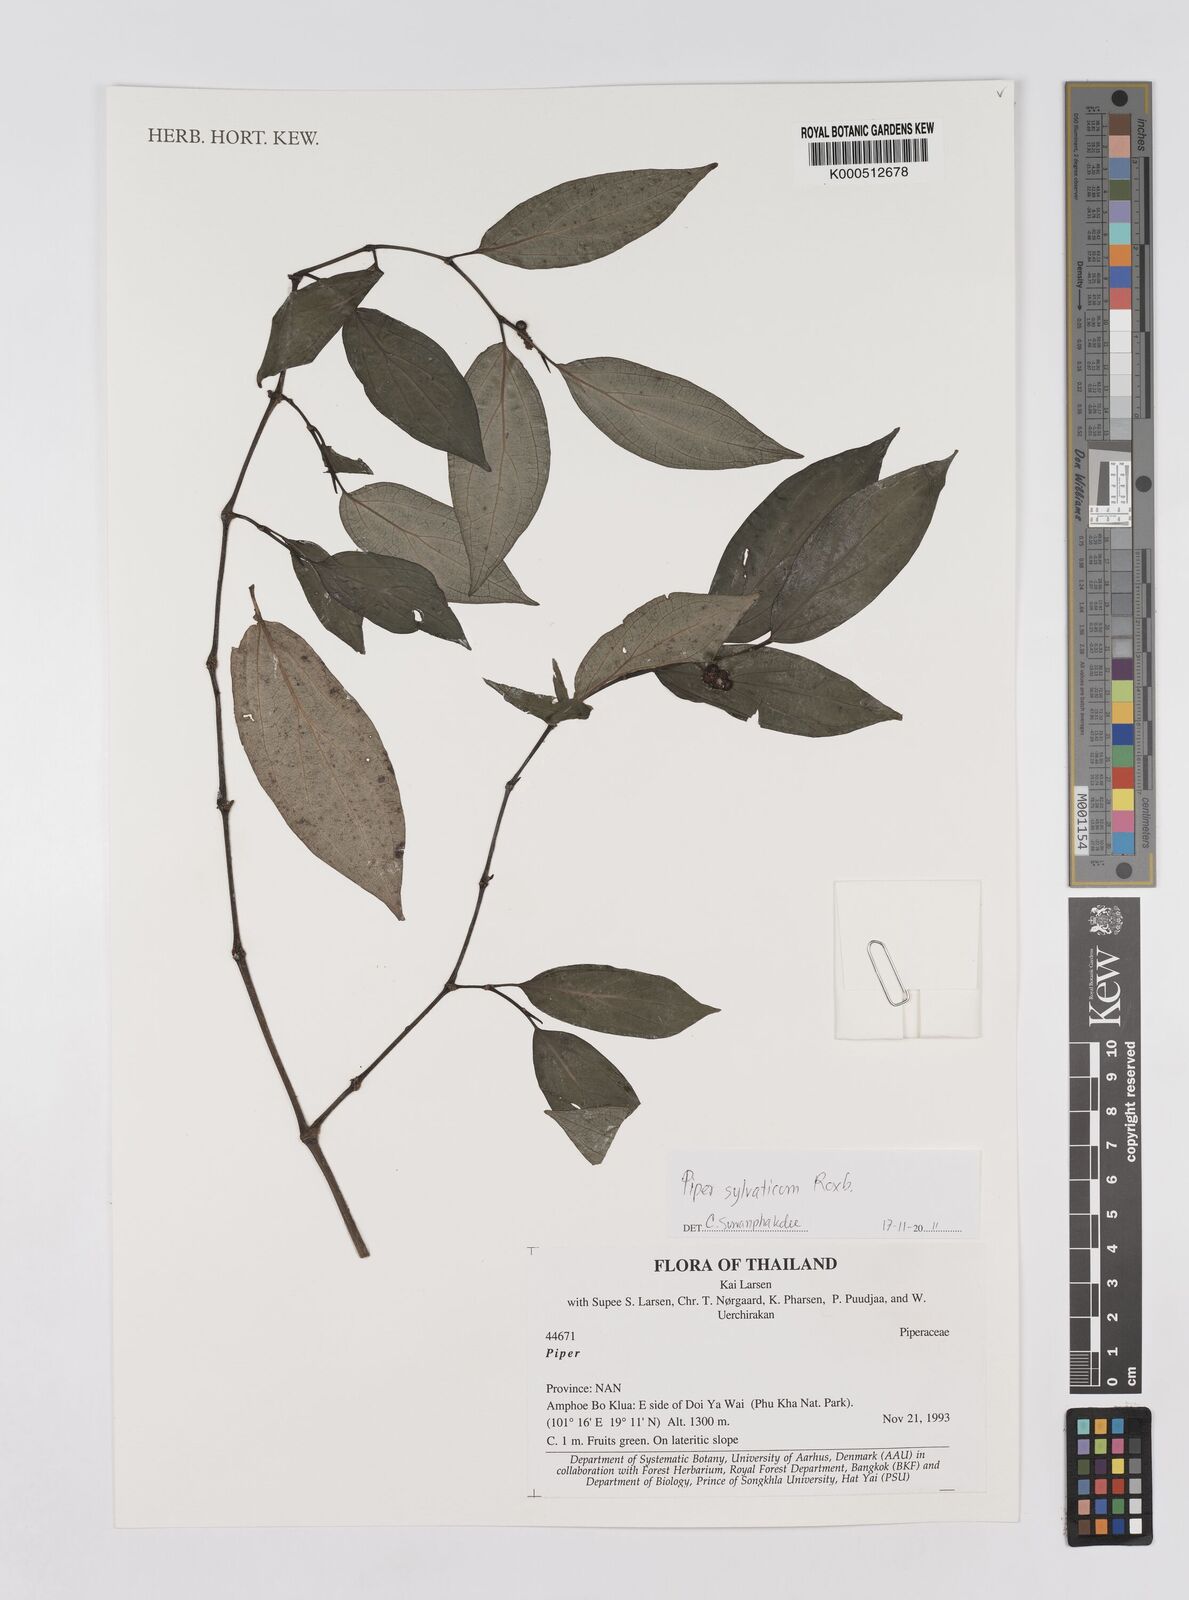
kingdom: Plantae
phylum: Tracheophyta
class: Magnoliopsida
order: Piperales
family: Piperaceae
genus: Piper
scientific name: Piper
